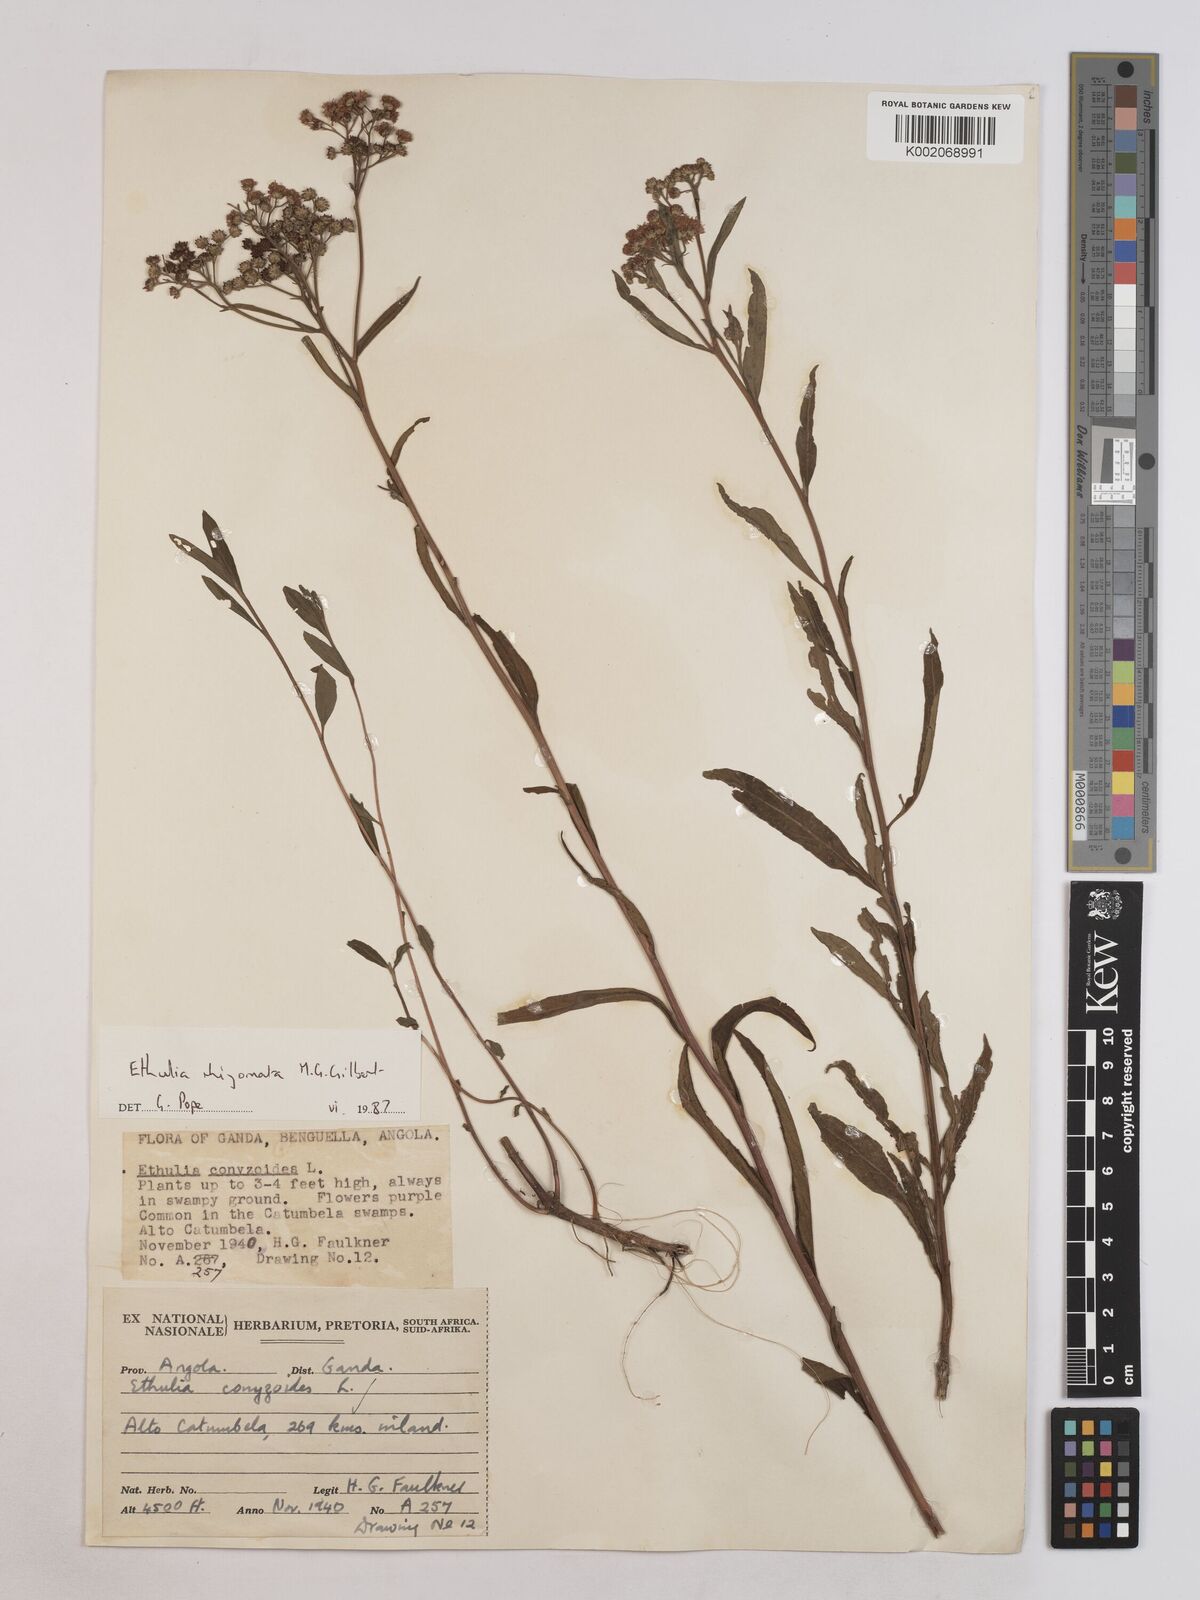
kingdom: Plantae
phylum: Tracheophyta
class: Magnoliopsida
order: Asterales
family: Asteraceae
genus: Ethulia
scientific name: Ethulia rhizomata
